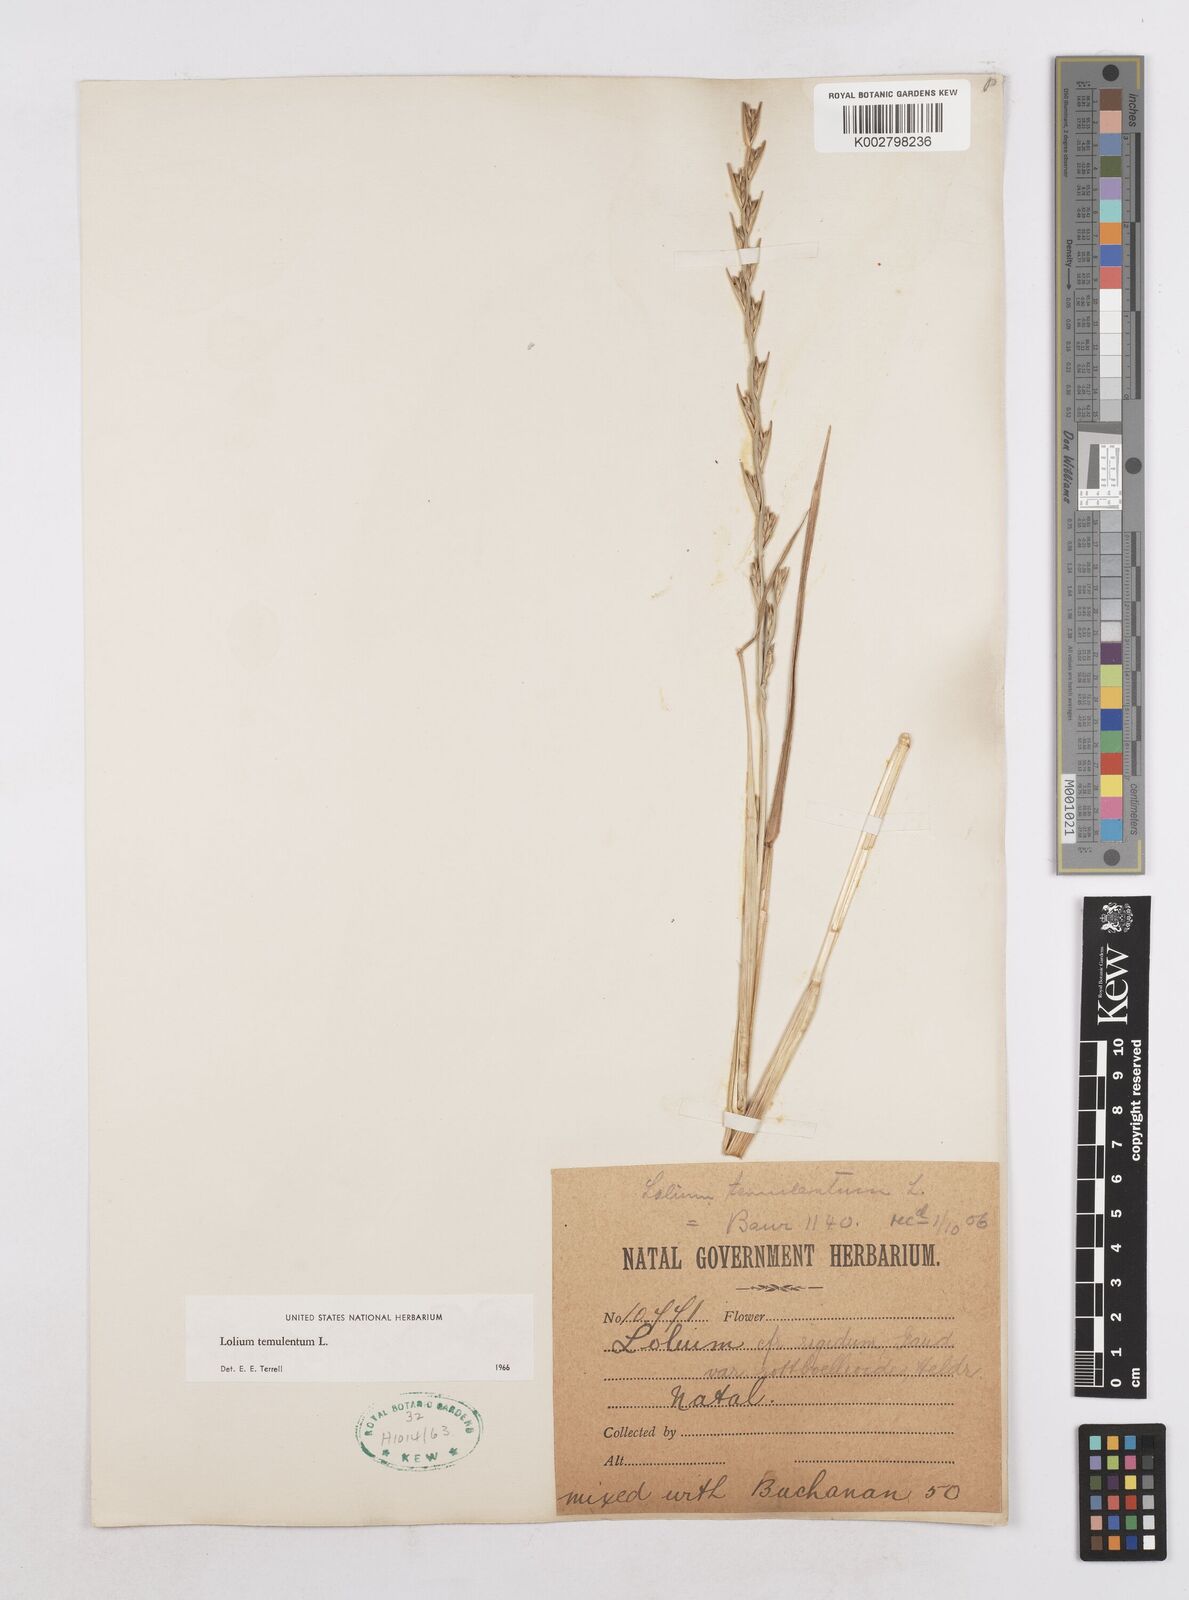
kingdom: Plantae
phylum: Tracheophyta
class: Liliopsida
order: Poales
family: Poaceae
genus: Lolium
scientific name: Lolium temulentum
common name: Darnel
